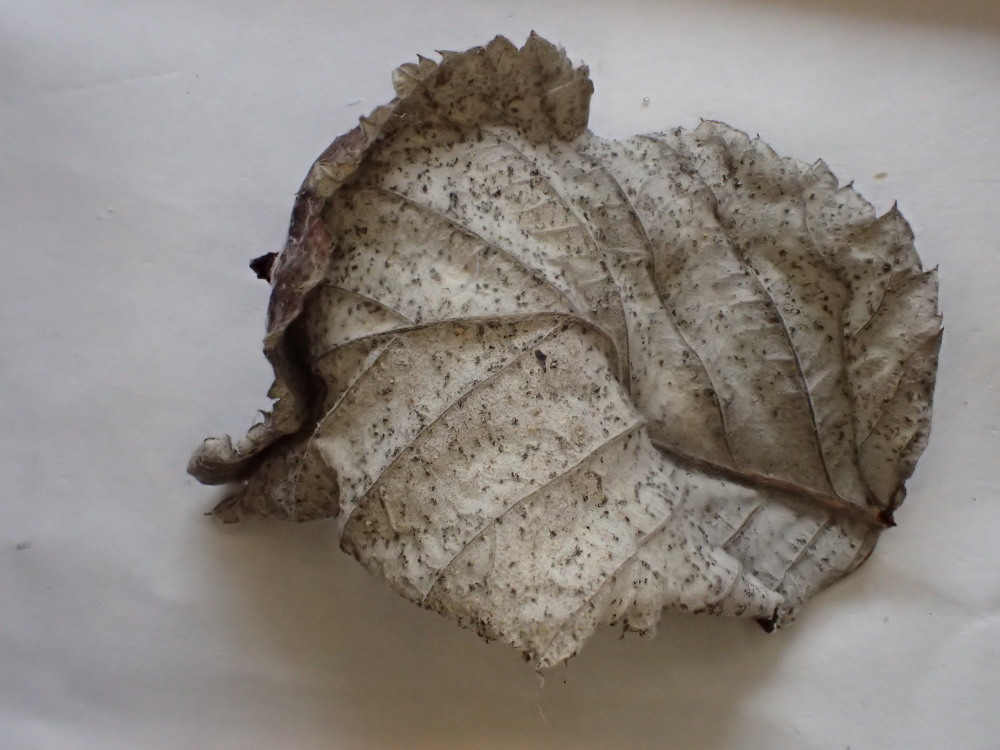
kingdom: Fungi
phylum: Basidiomycota
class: Pucciniomycetes
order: Pucciniales
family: Phragmidiaceae
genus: Phragmidium
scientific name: Phragmidium rubi-idaei
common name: hindbær-flercellerust
